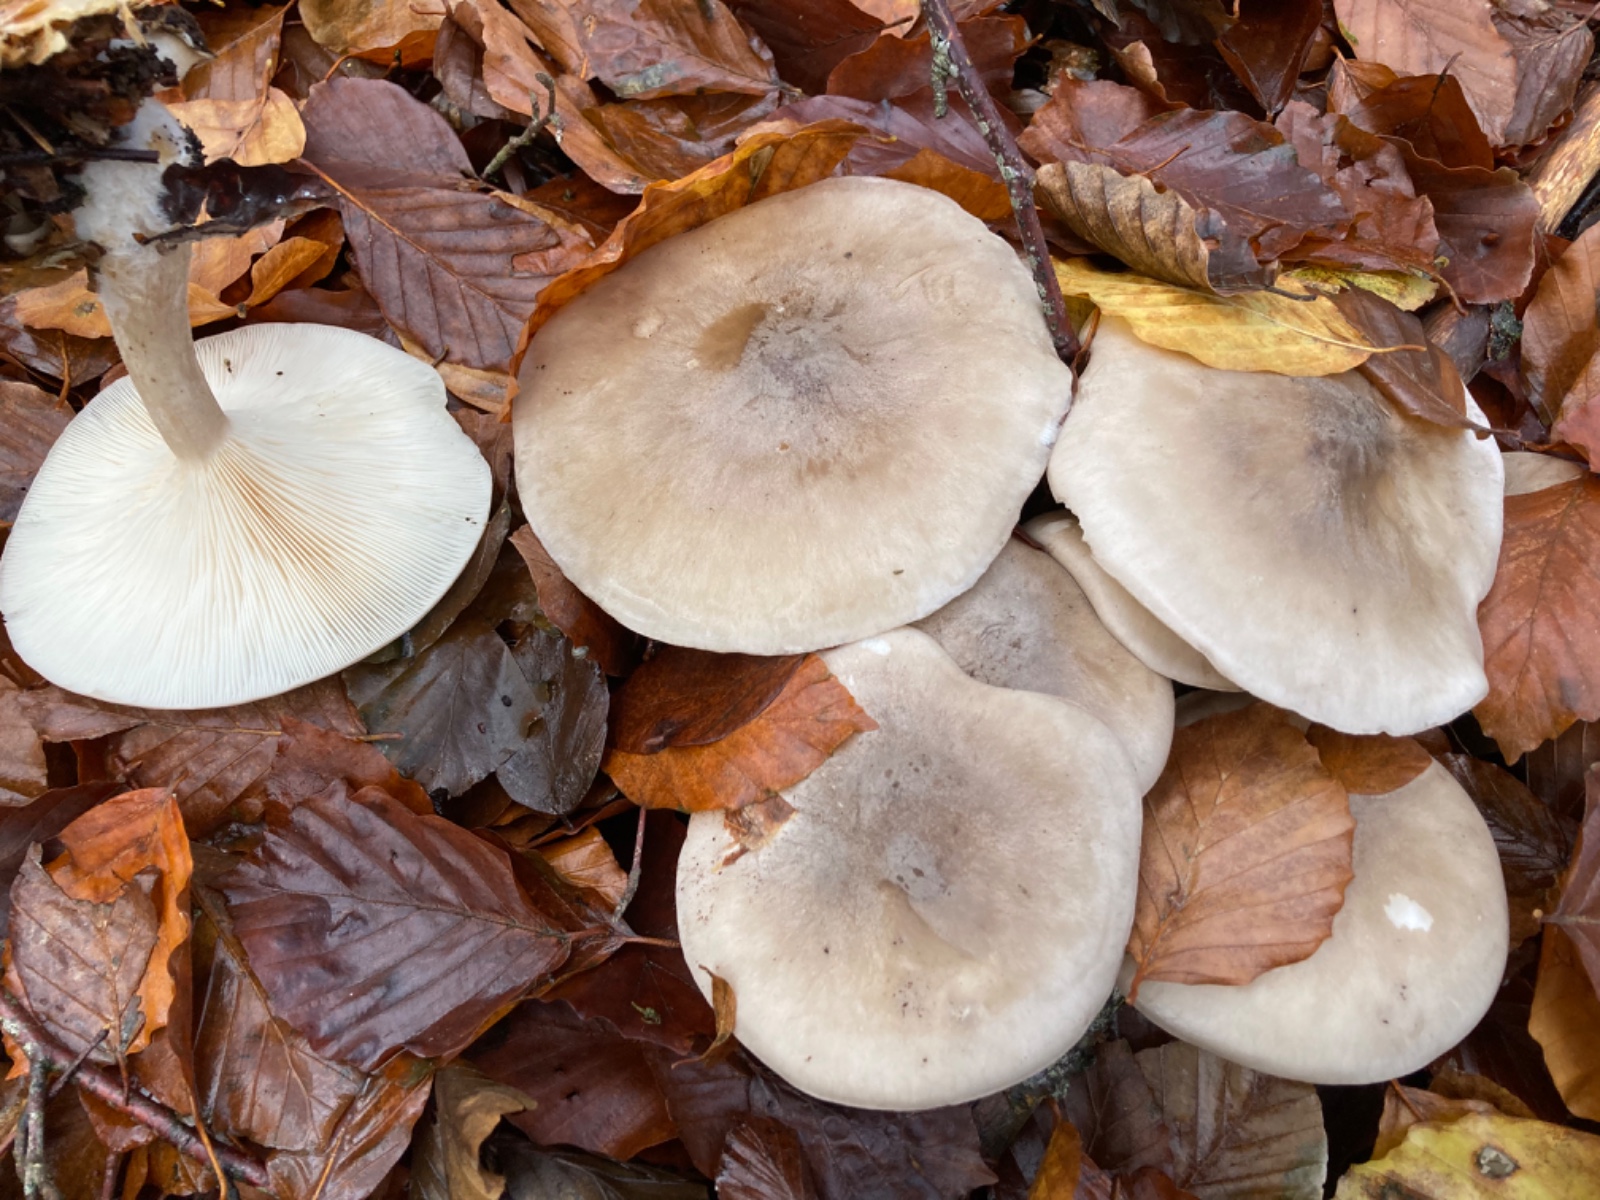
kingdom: Fungi
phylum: Basidiomycota
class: Agaricomycetes
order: Agaricales
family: Tricholomataceae
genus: Clitocybe
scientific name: Clitocybe nebularis
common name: tåge-tragthat
